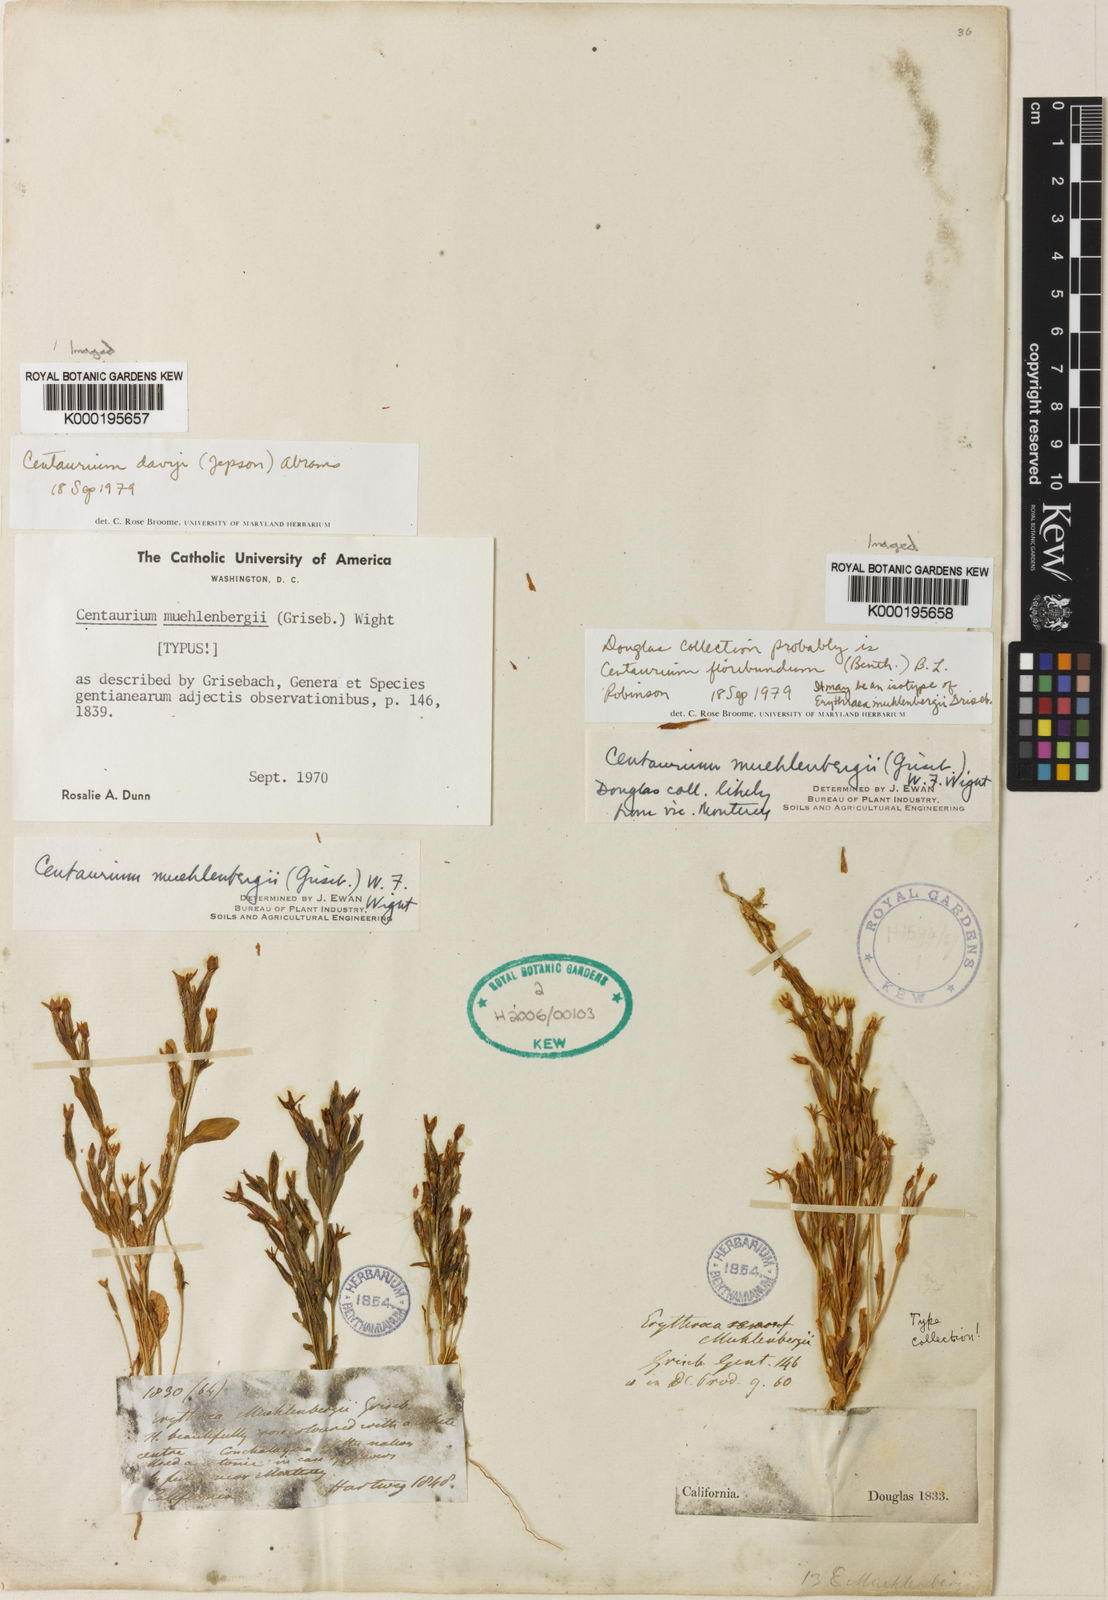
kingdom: Plantae
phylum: Tracheophyta
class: Magnoliopsida
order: Gentianales
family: Gentianaceae
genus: Centaurium
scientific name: Centaurium
